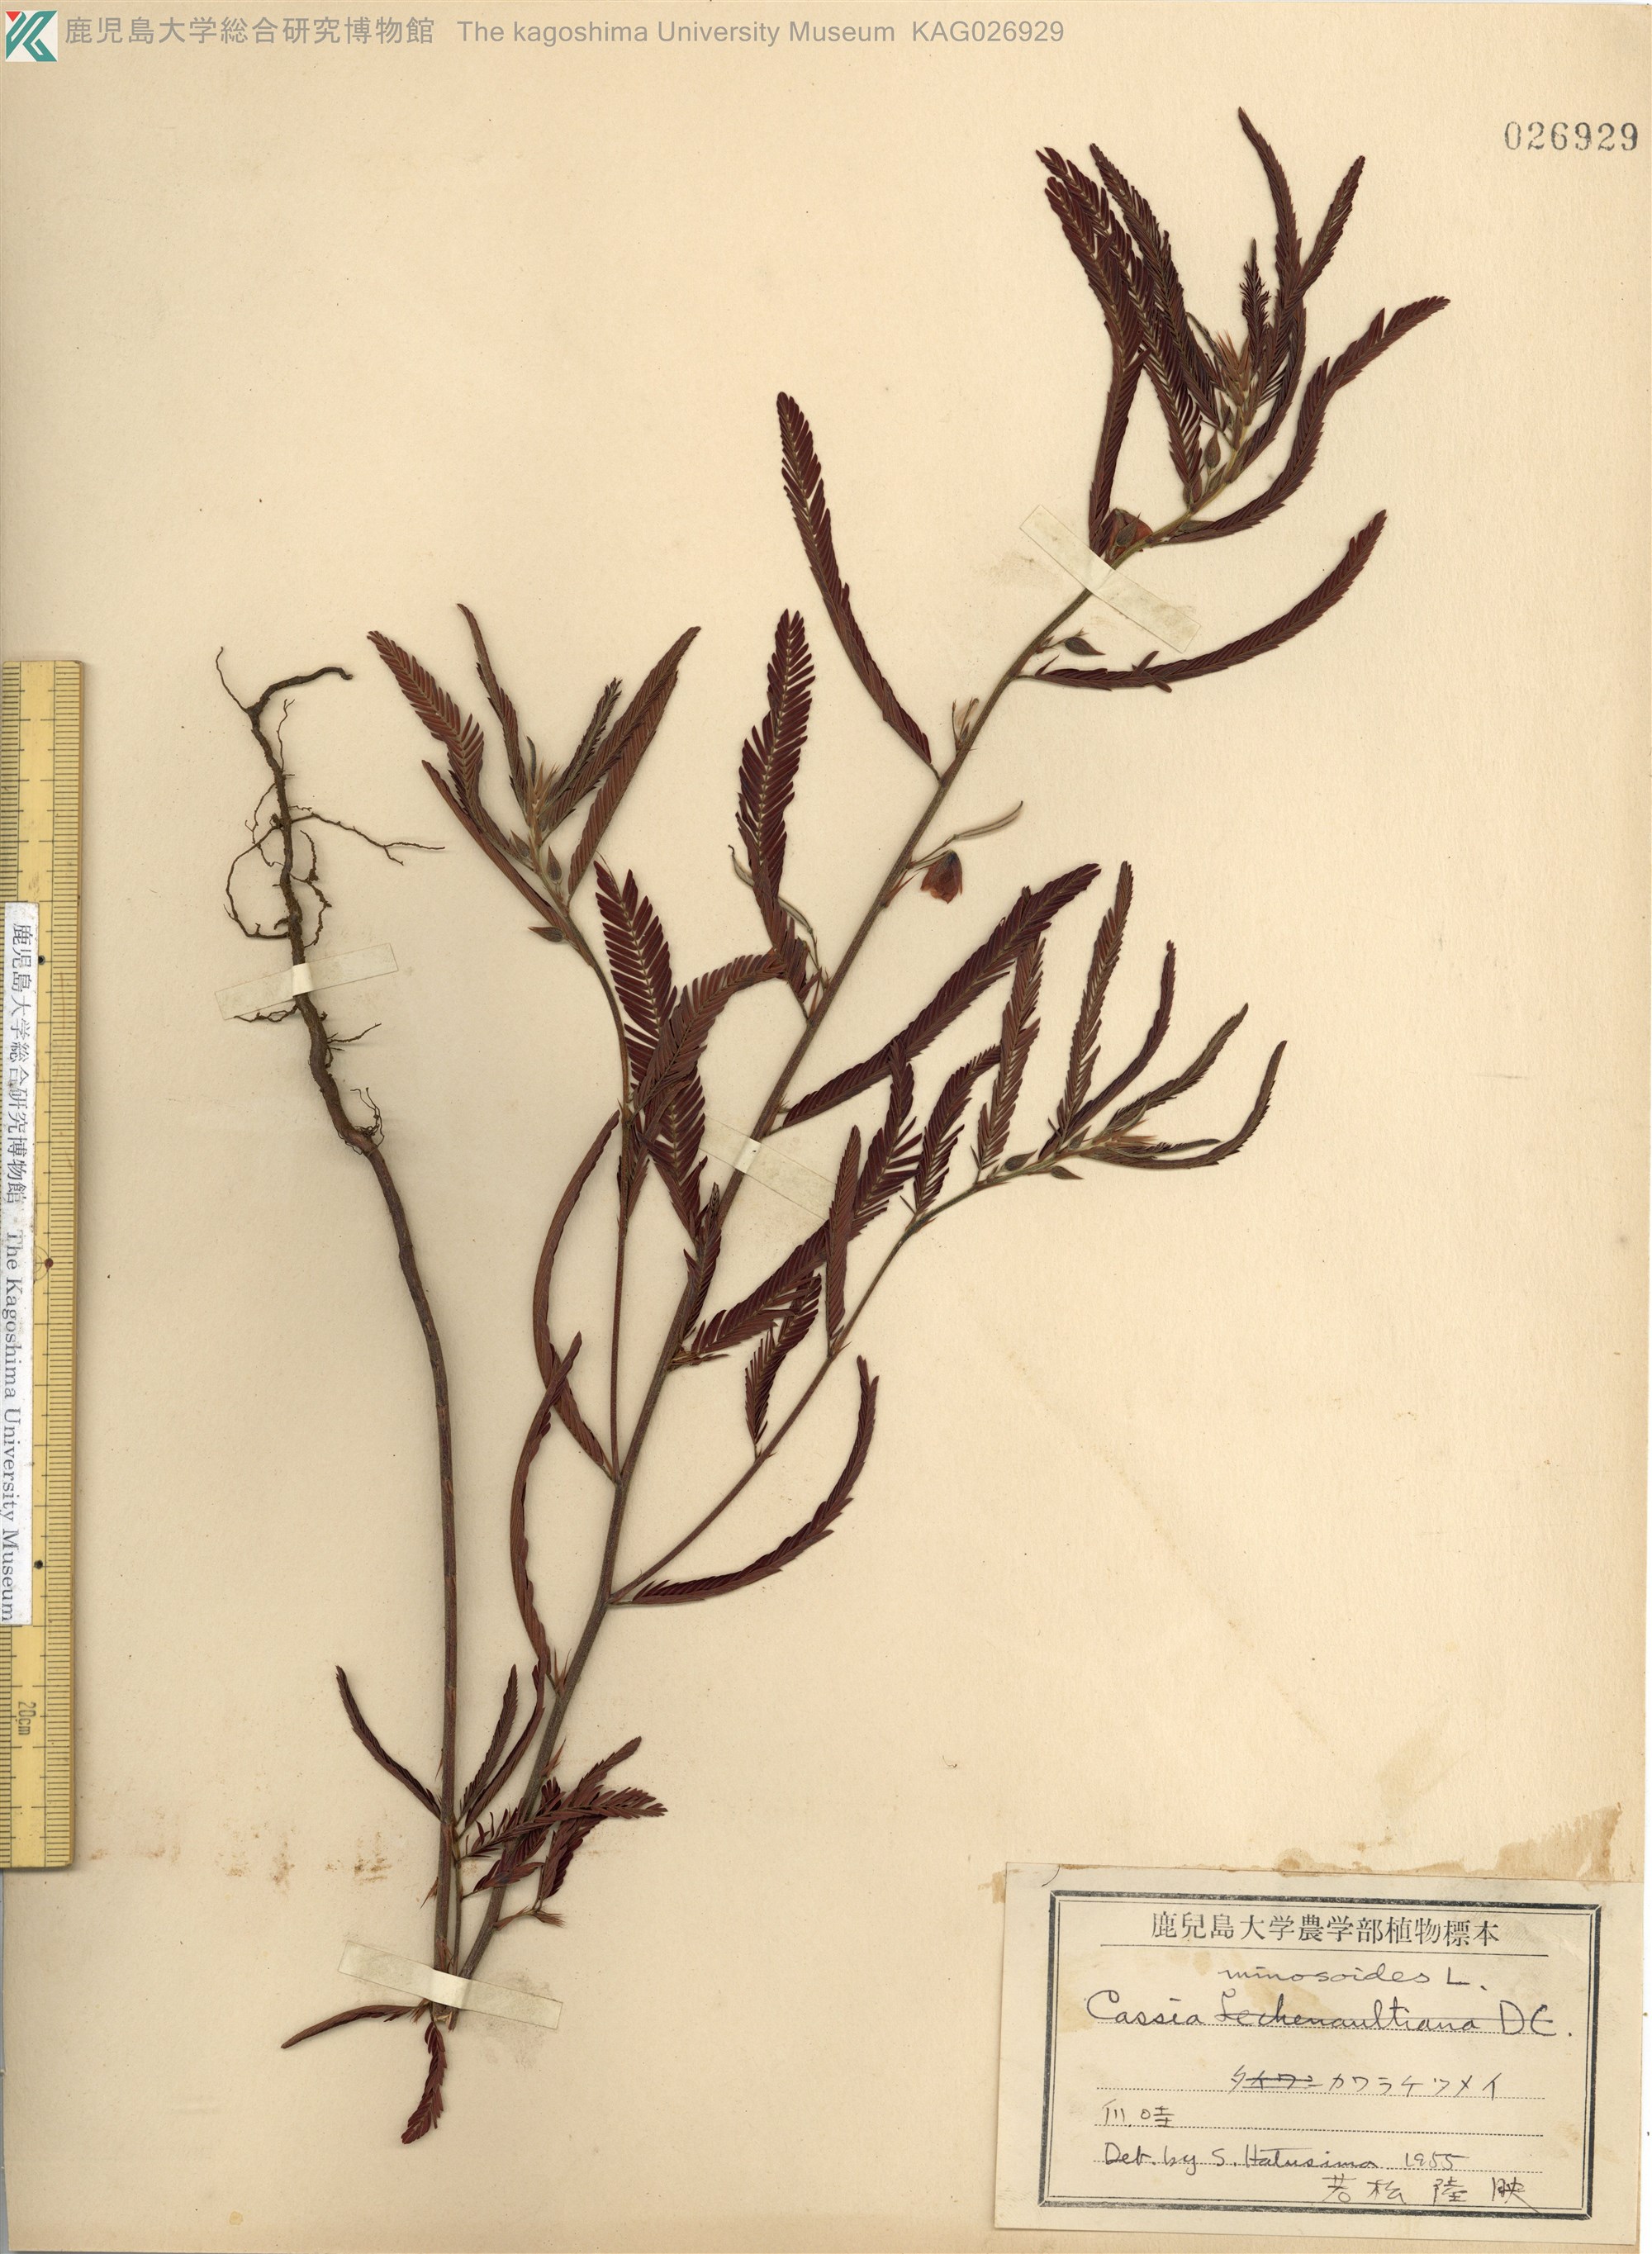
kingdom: Plantae
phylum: Tracheophyta
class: Magnoliopsida
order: Fabales
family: Fabaceae
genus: Chamaecrista
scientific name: Chamaecrista nomame
